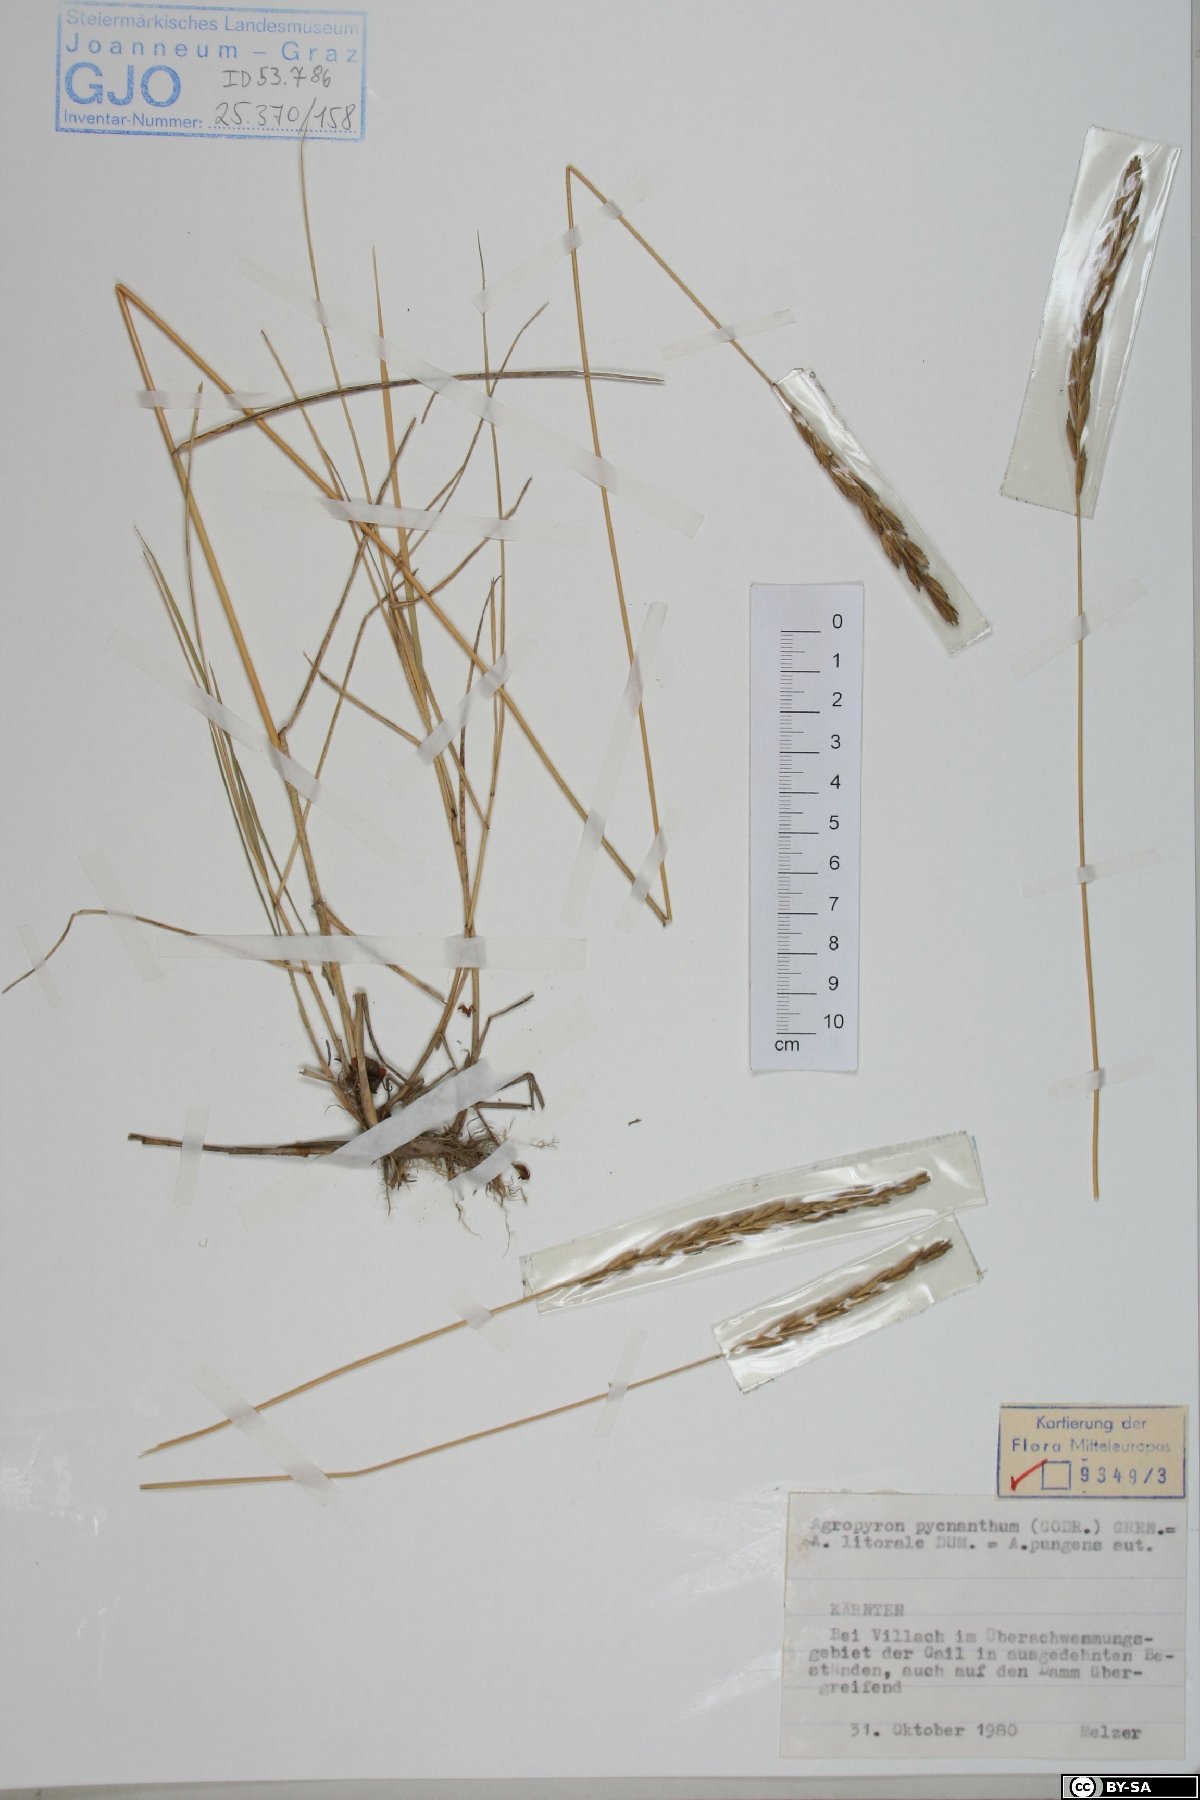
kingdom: Plantae
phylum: Tracheophyta
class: Liliopsida
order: Poales
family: Poaceae
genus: Thinopyrum
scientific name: Thinopyrum acutum
